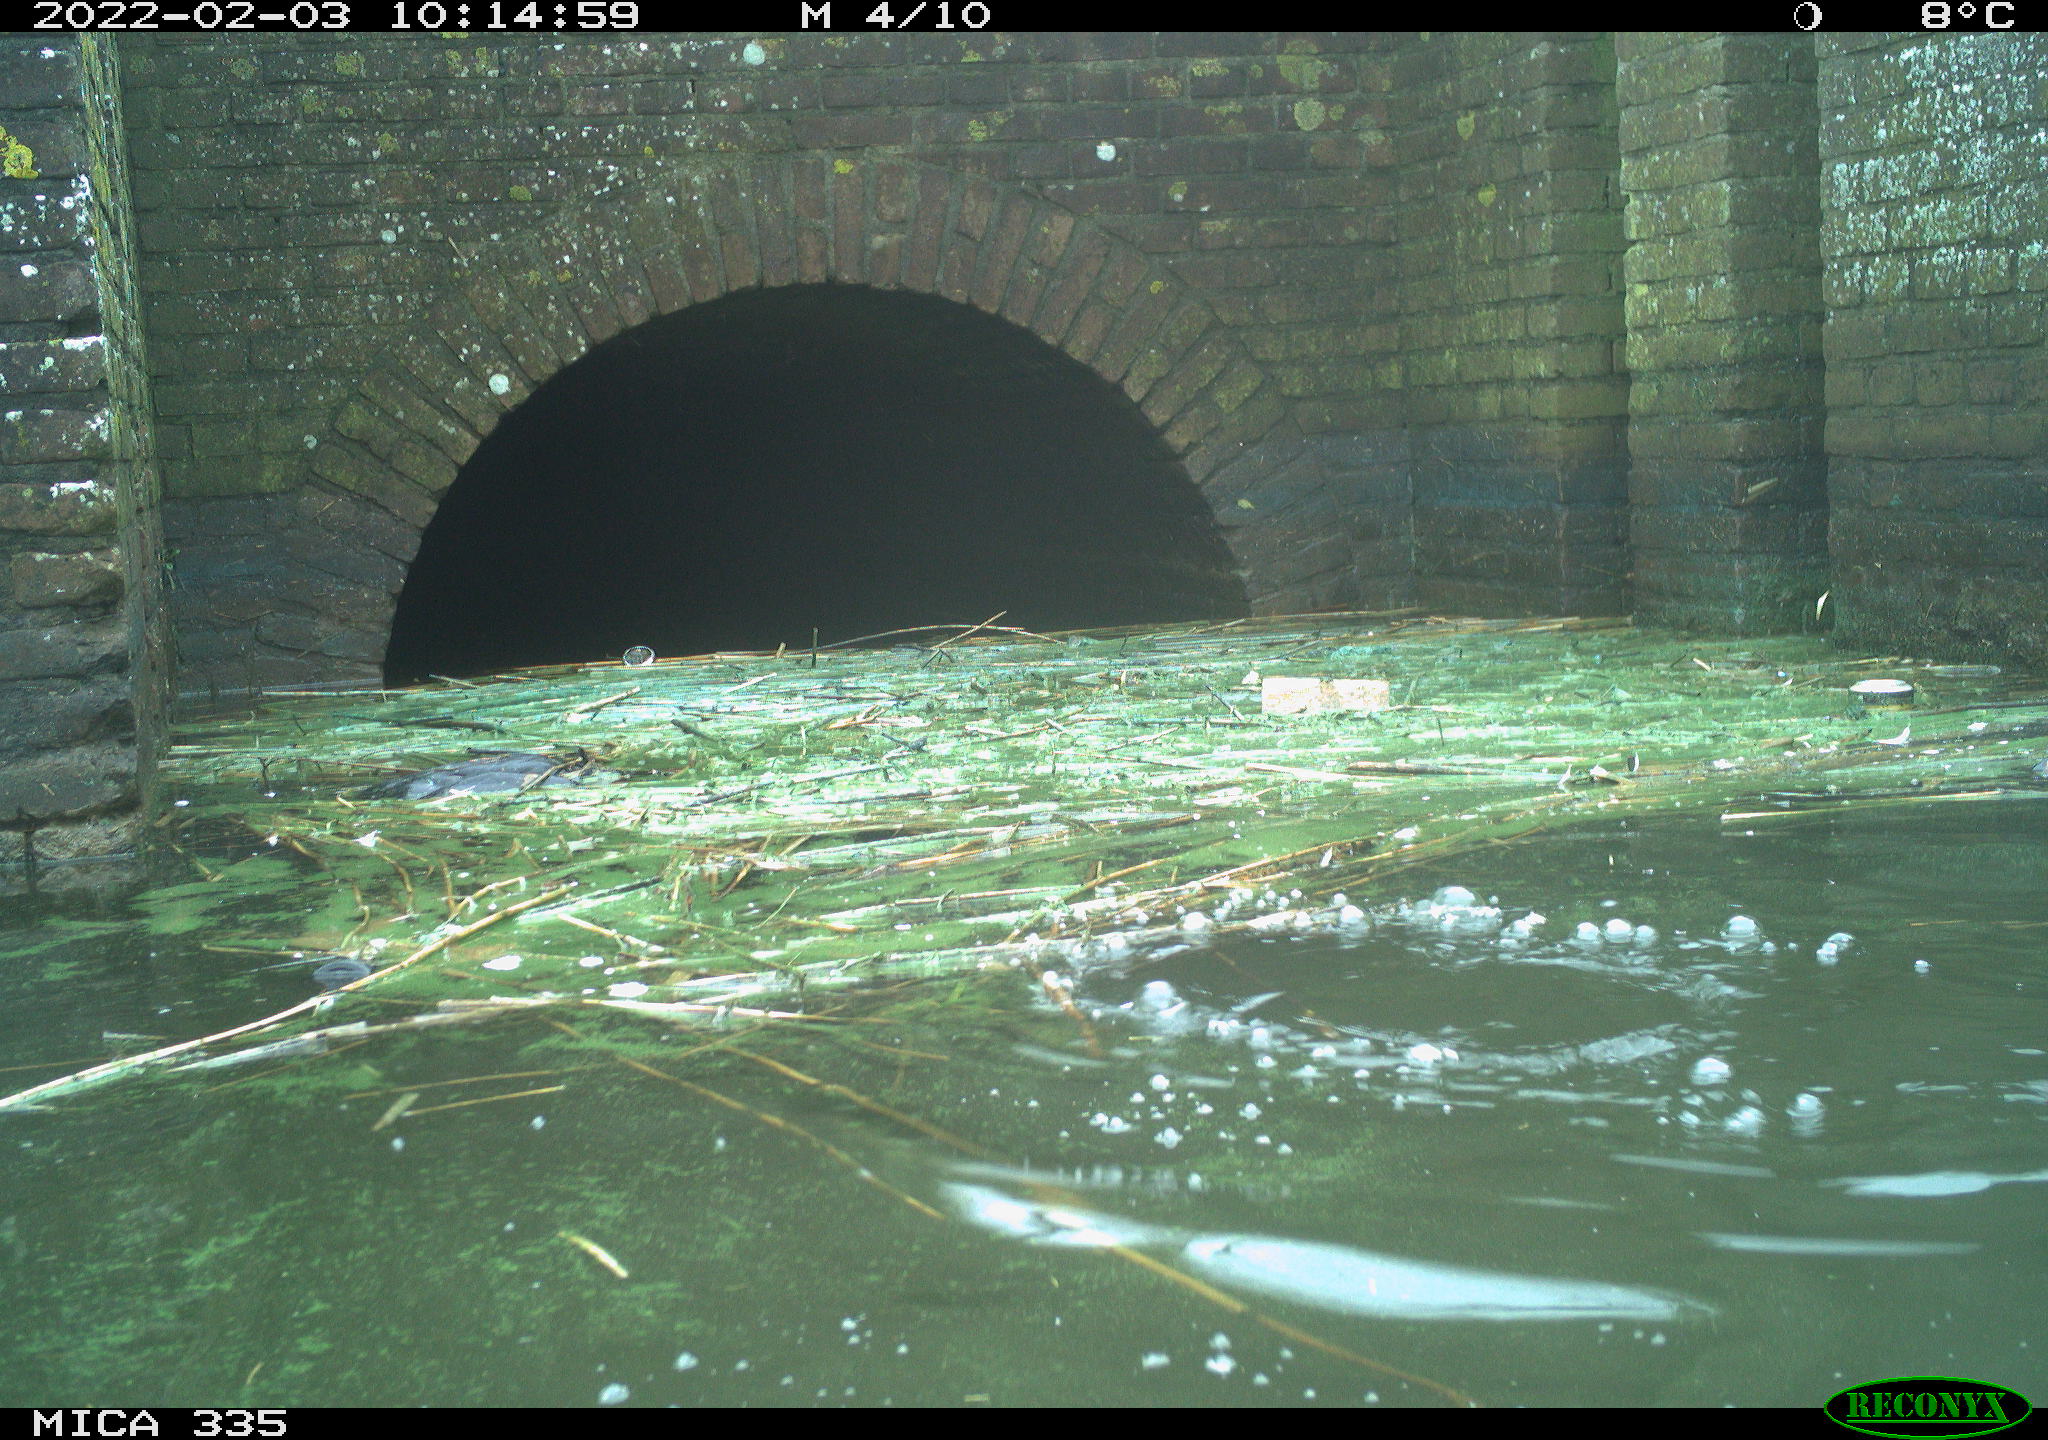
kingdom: Animalia
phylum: Chordata
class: Aves
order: Gruiformes
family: Rallidae
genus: Fulica
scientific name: Fulica atra
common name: Eurasian coot
